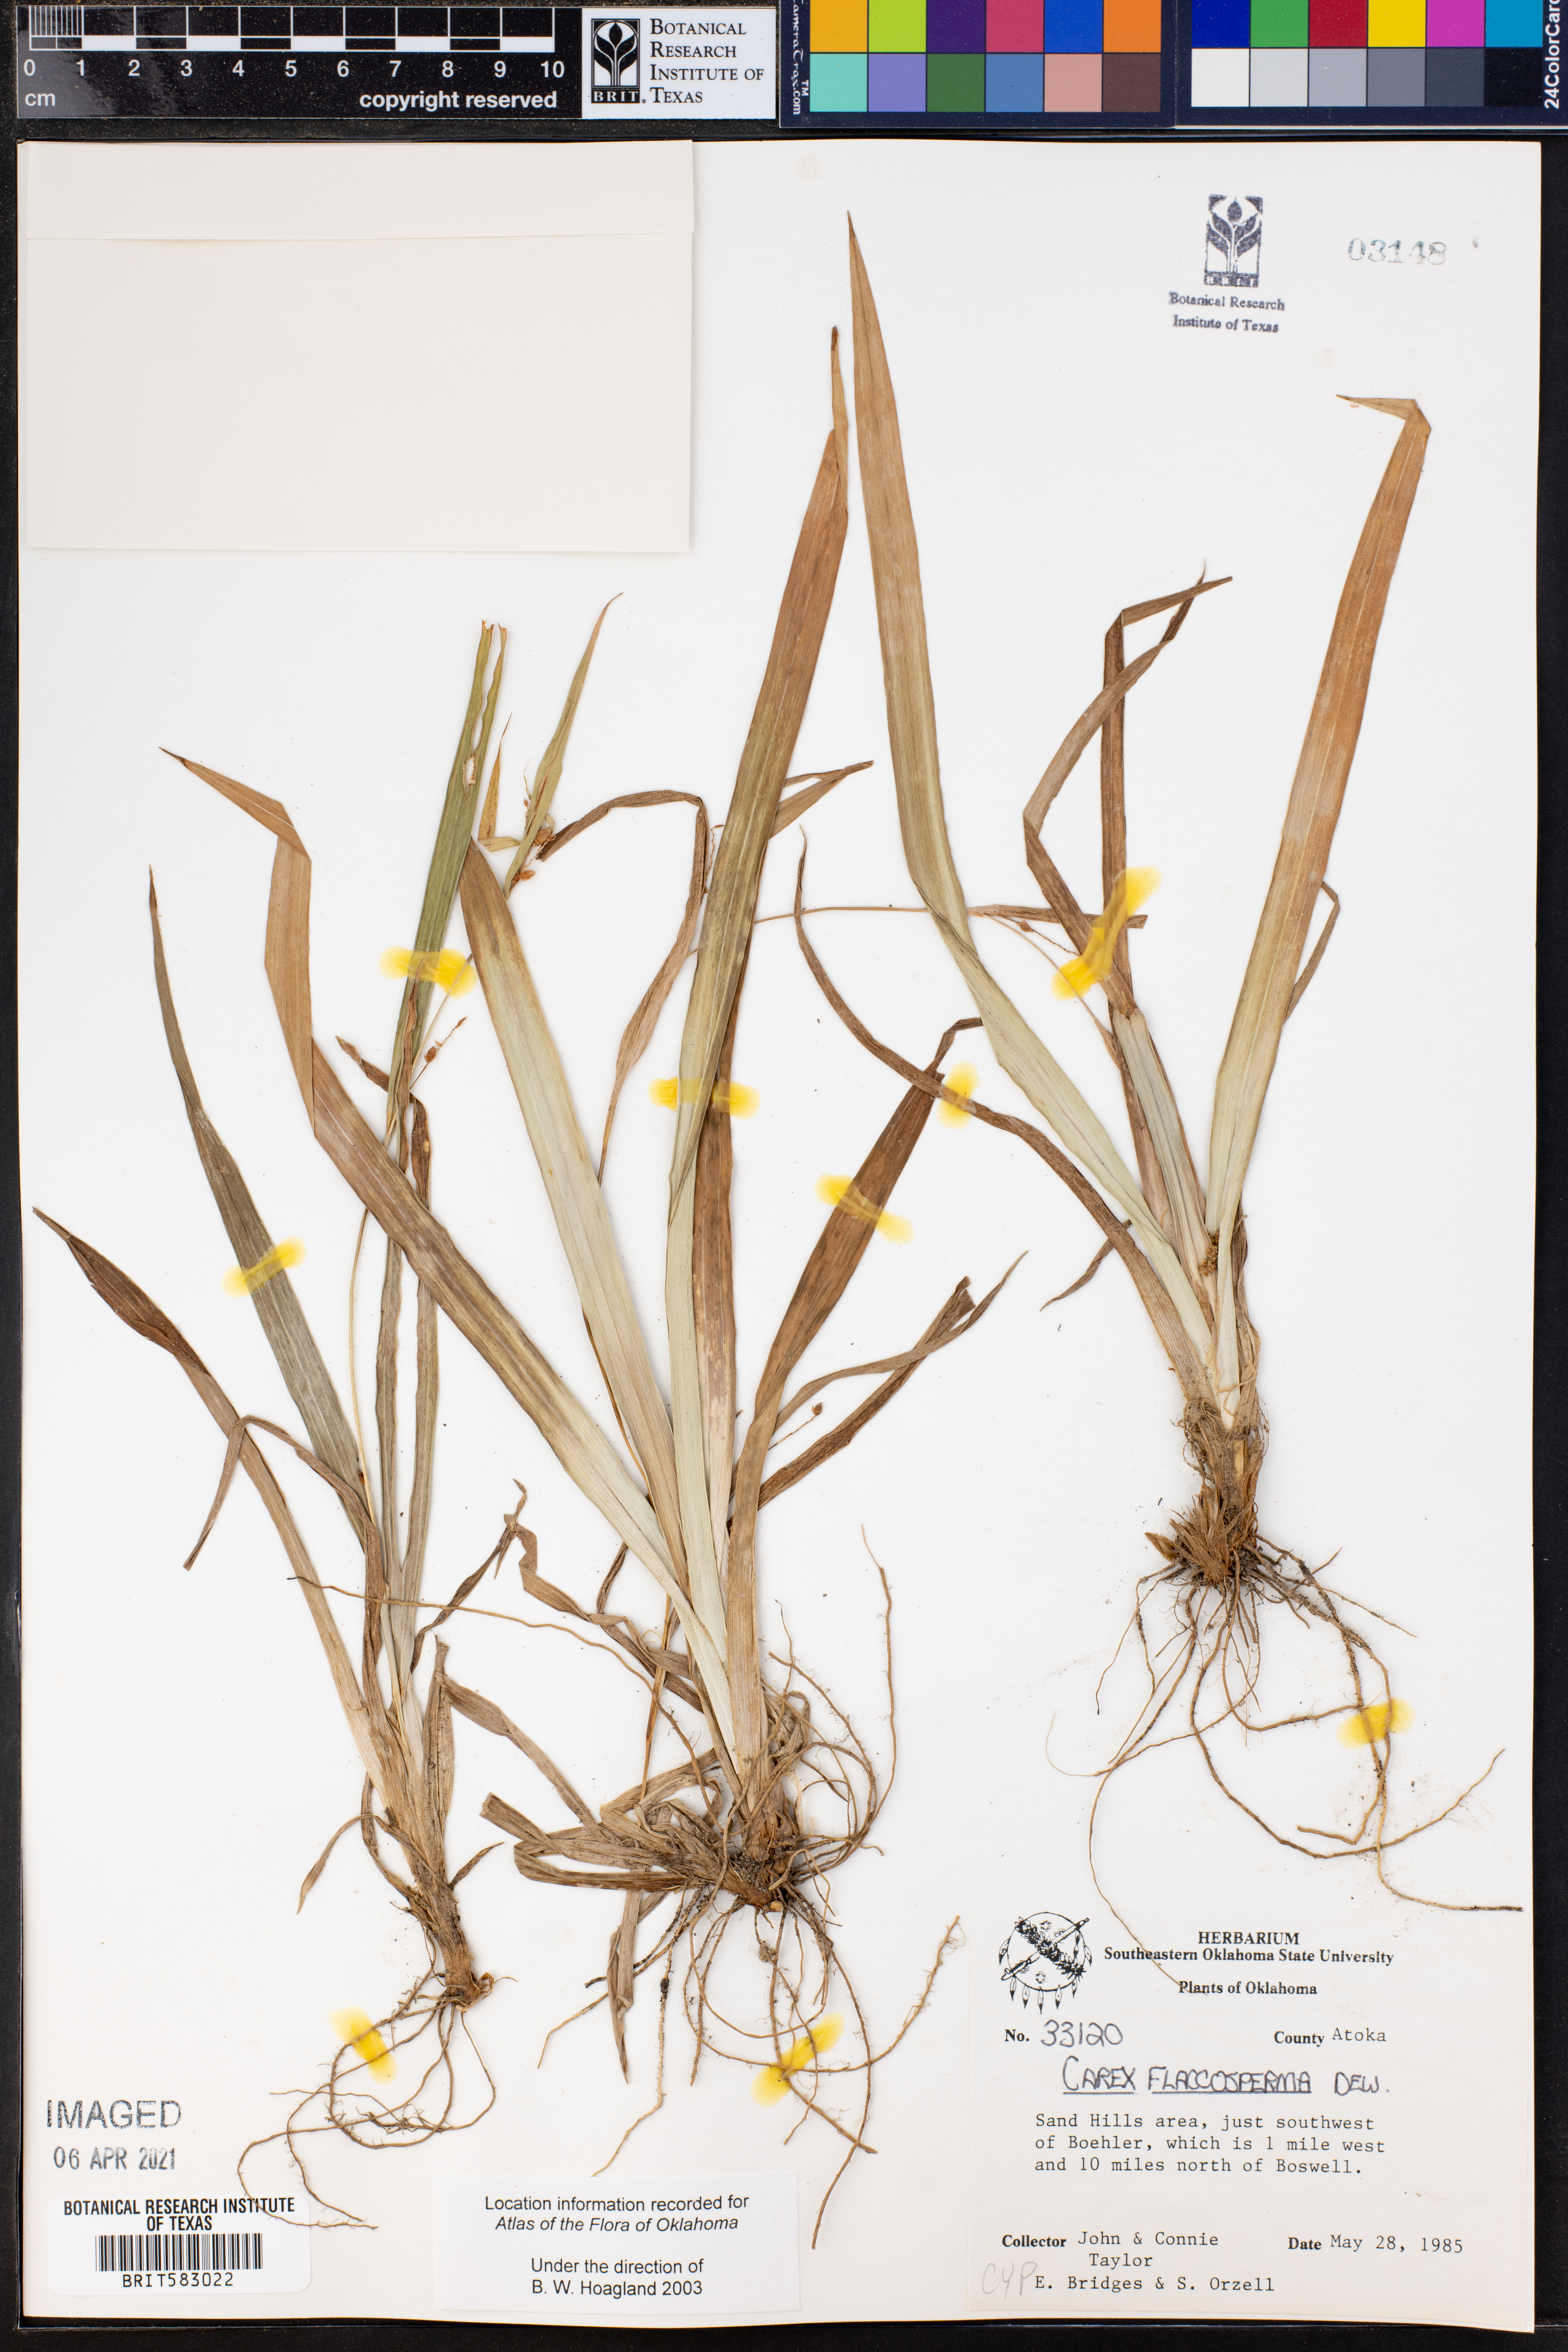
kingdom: Plantae
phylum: Tracheophyta
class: Liliopsida
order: Poales
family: Cyperaceae
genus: Carex
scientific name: Carex flaccosperma
